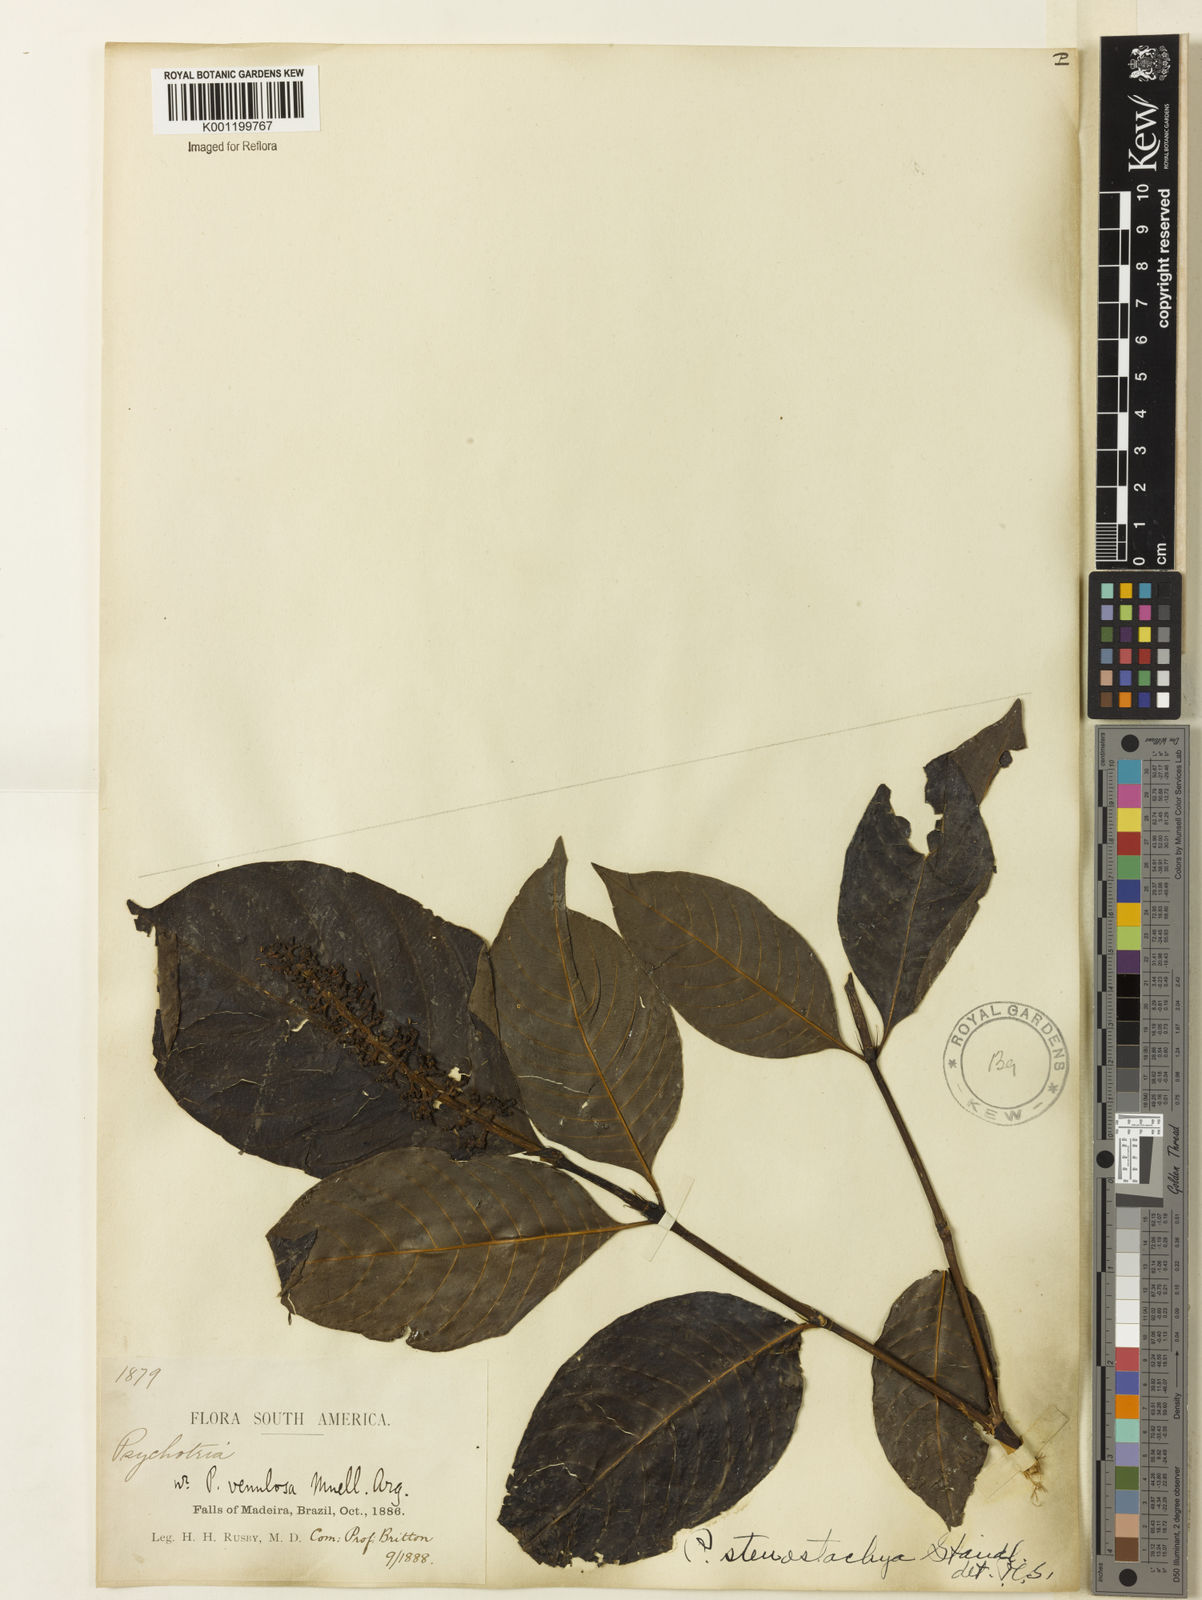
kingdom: Plantae
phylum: Tracheophyta
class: Magnoliopsida
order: Gentianales
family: Rubiaceae
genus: Palicourea
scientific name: Palicourea stenostachya
